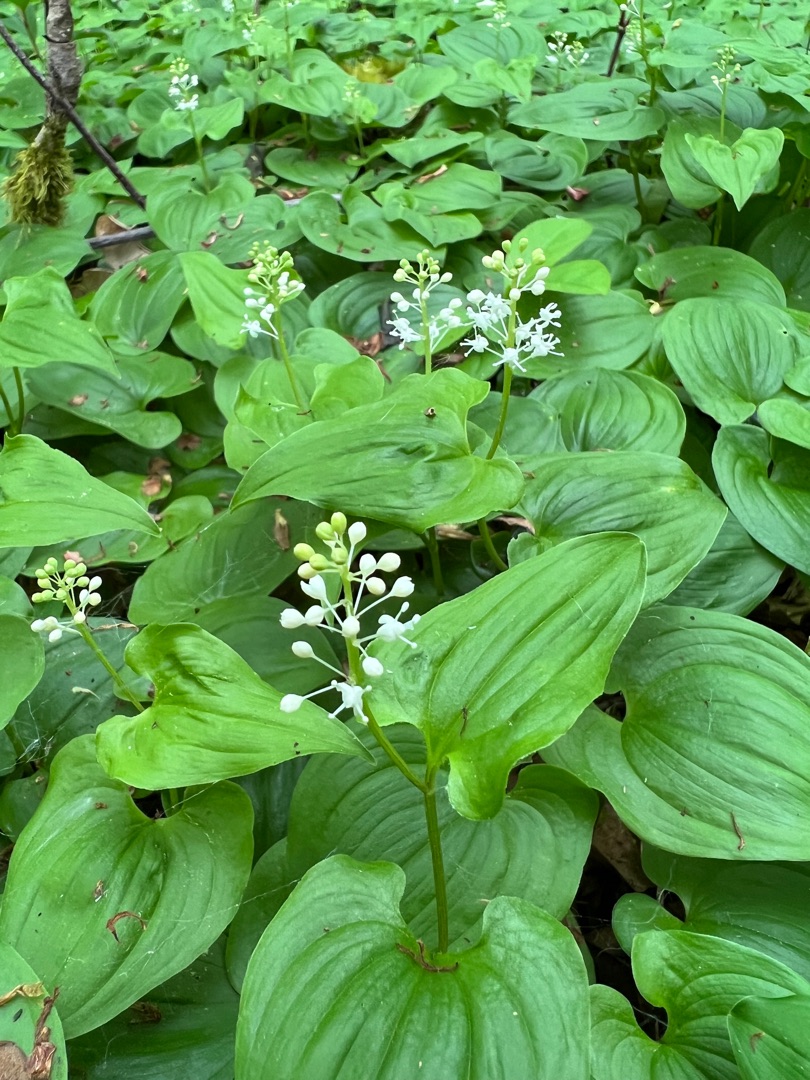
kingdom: Plantae
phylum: Tracheophyta
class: Liliopsida
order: Asparagales
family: Asparagaceae
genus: Maianthemum
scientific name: Maianthemum bifolium
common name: Majblomst
